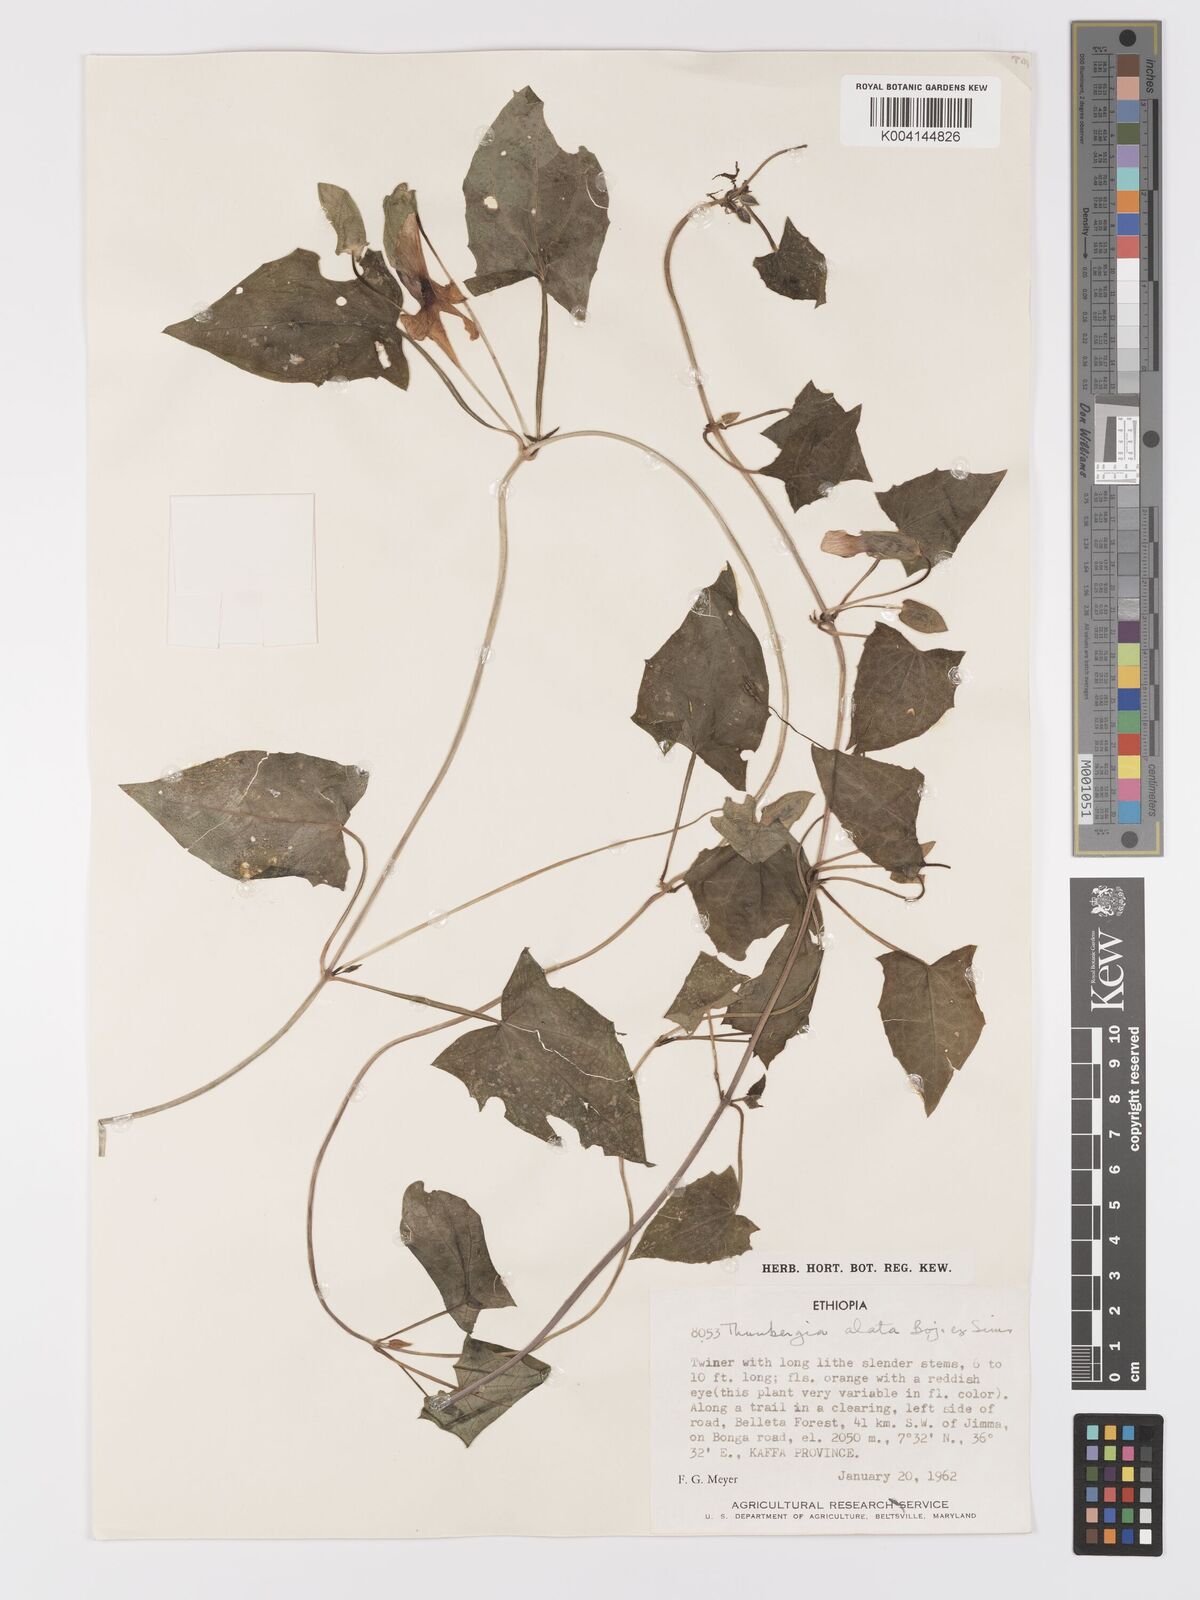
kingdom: Plantae
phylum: Tracheophyta
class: Magnoliopsida
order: Lamiales
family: Acanthaceae
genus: Thunbergia
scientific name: Thunbergia alata
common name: Blackeyed susan vine
